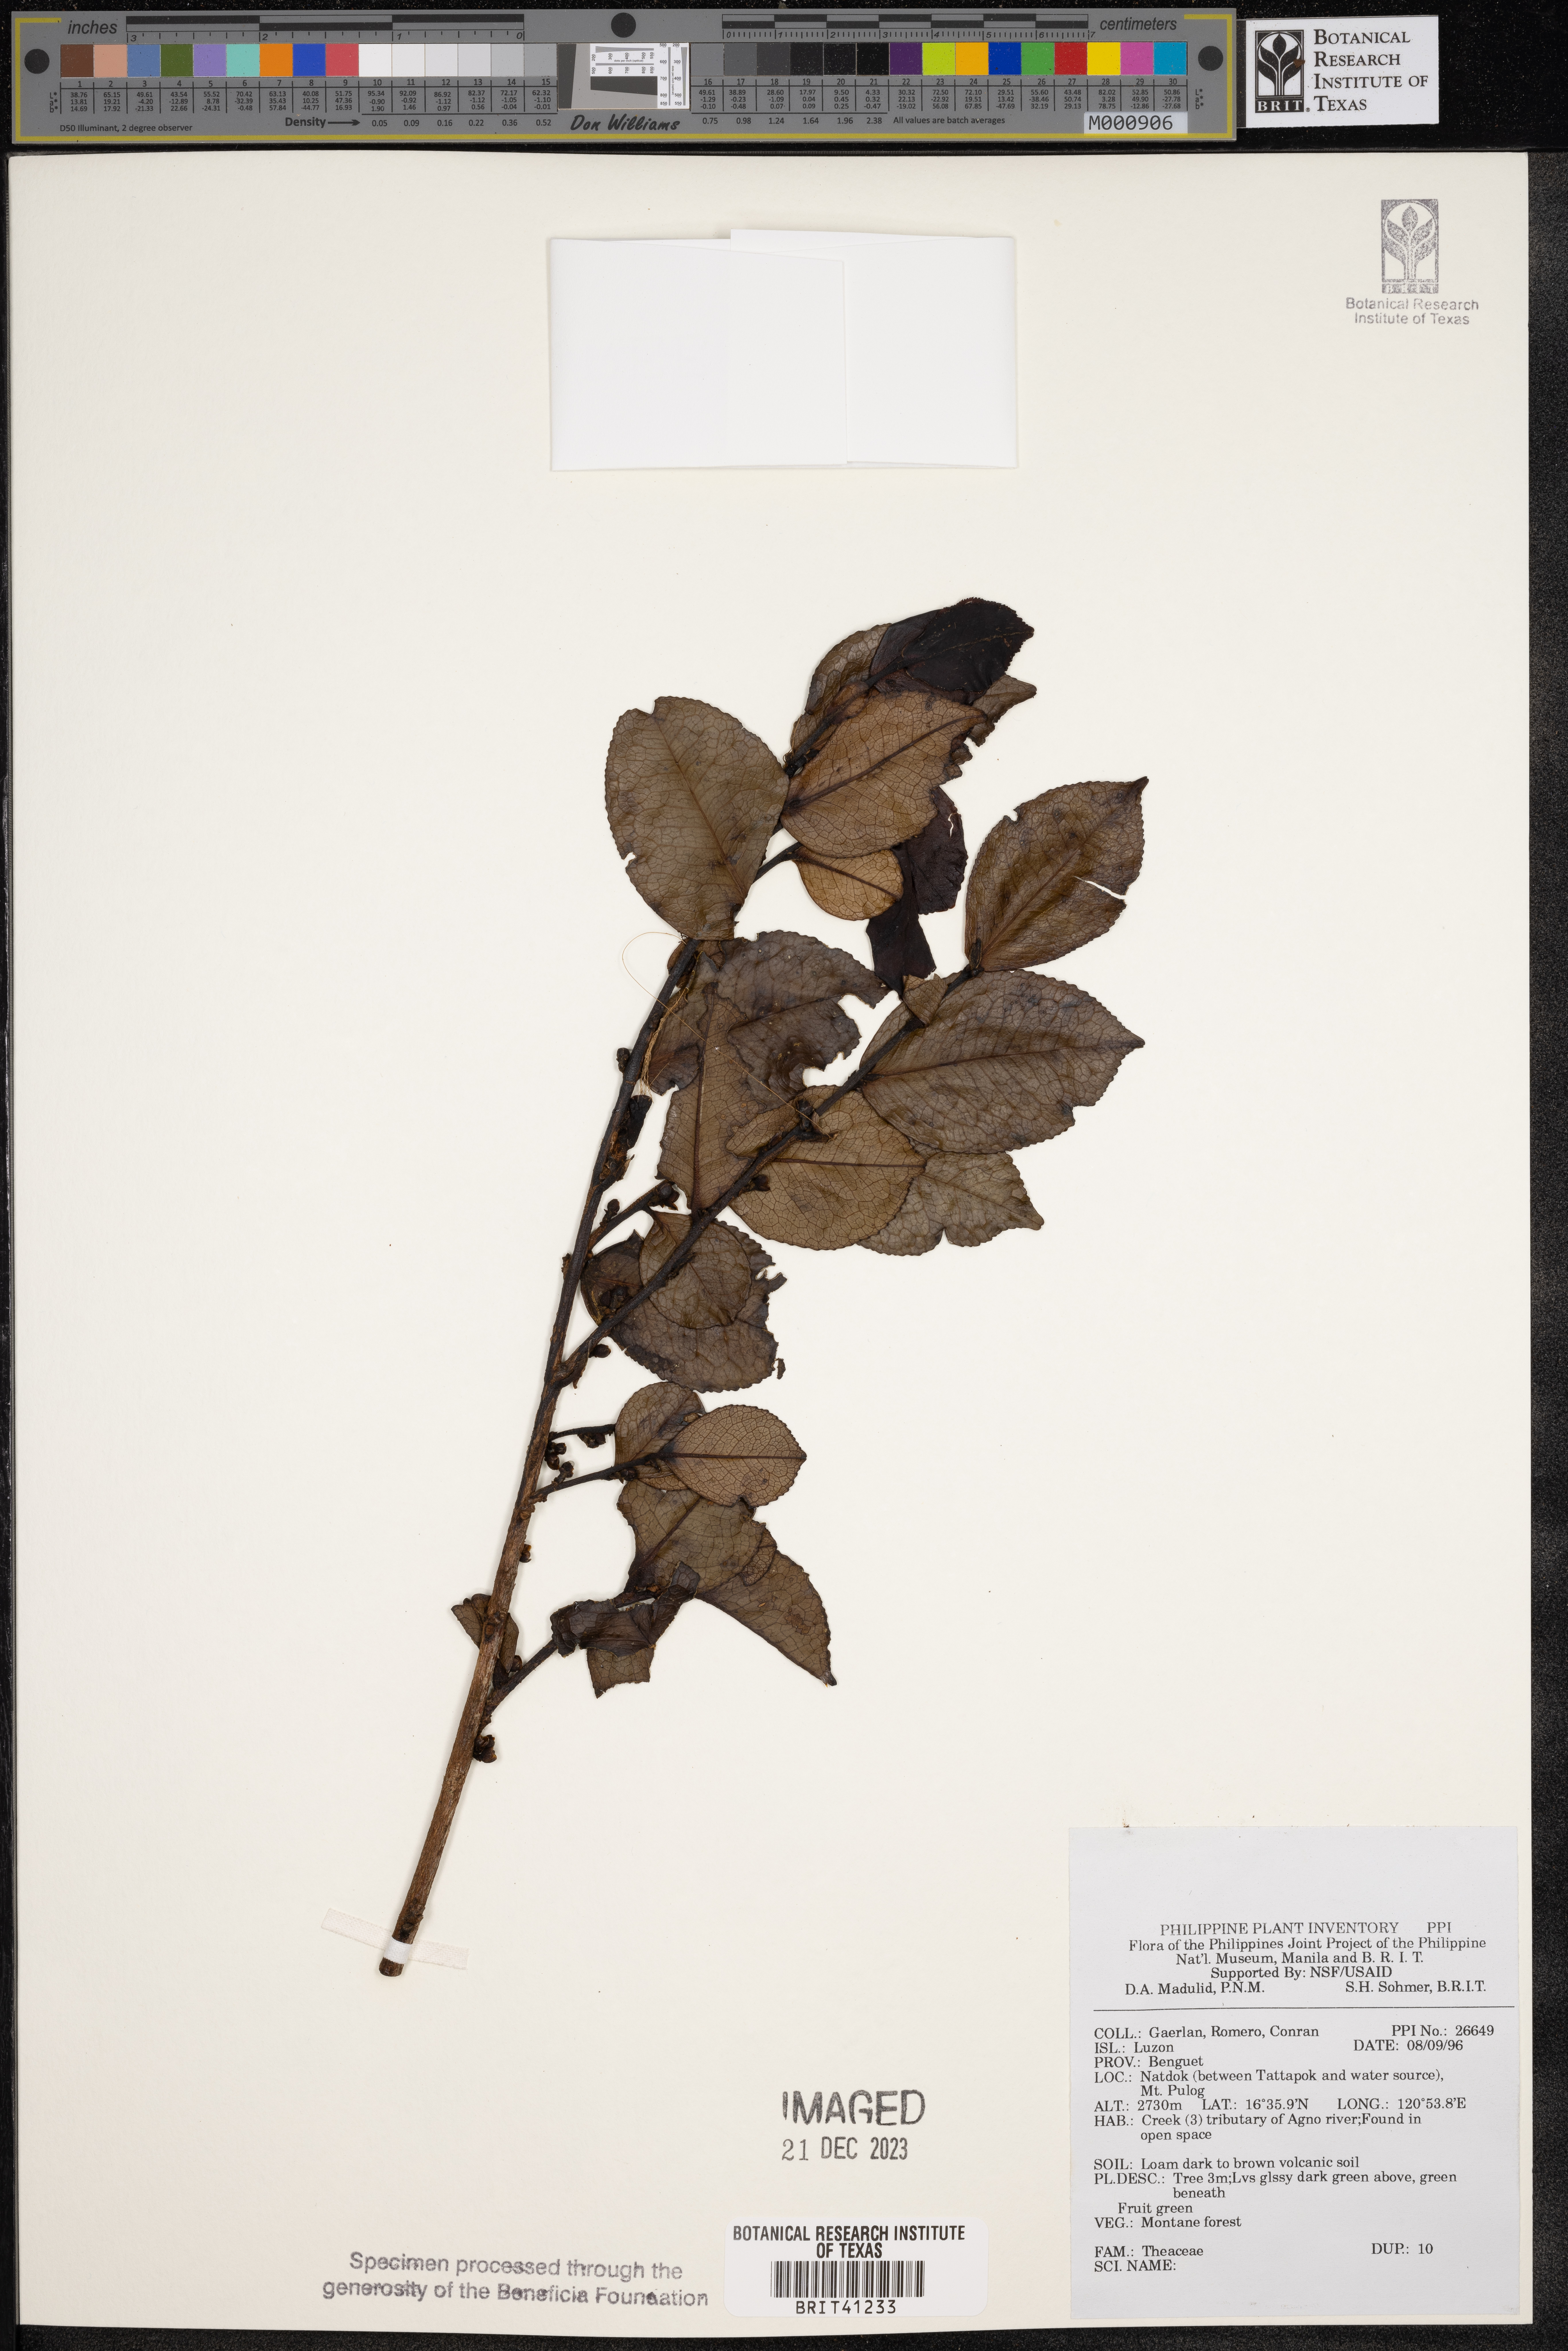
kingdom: Plantae
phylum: Tracheophyta
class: Magnoliopsida
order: Ericales
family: Theaceae
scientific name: Theaceae
